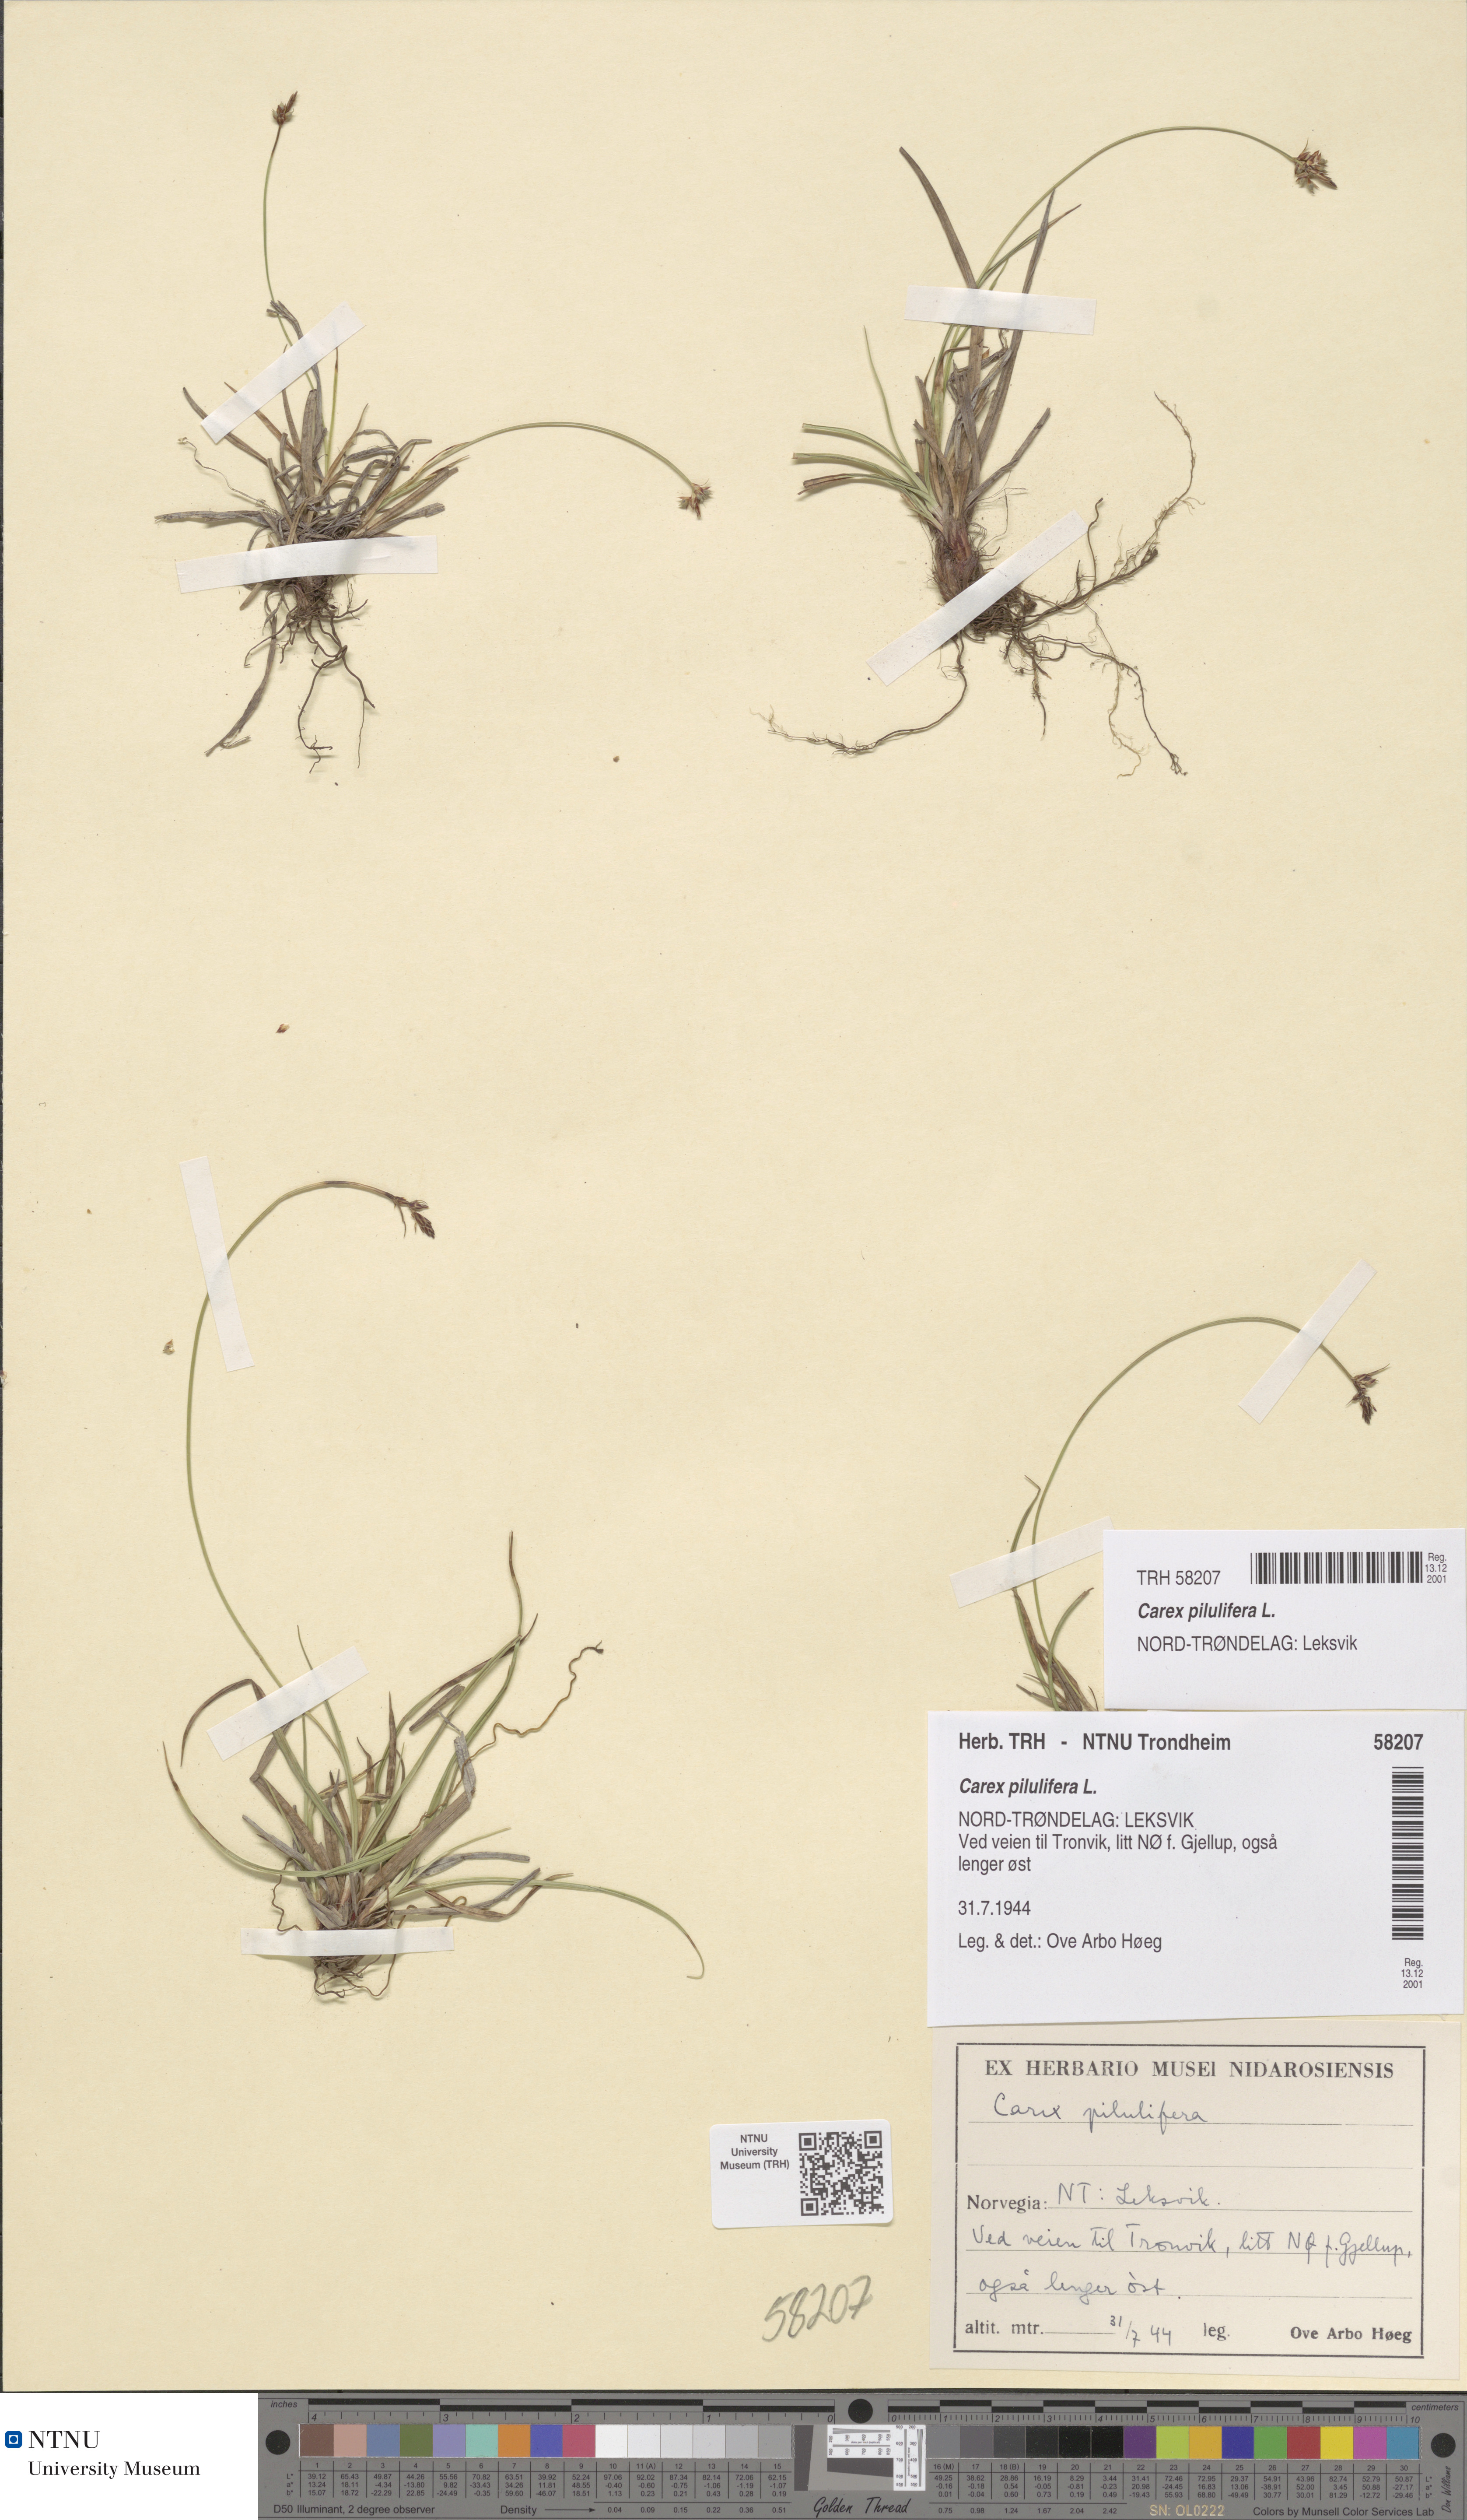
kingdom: Plantae
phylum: Tracheophyta
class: Liliopsida
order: Poales
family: Cyperaceae
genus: Carex
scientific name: Carex pilulifera
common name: Pill sedge
